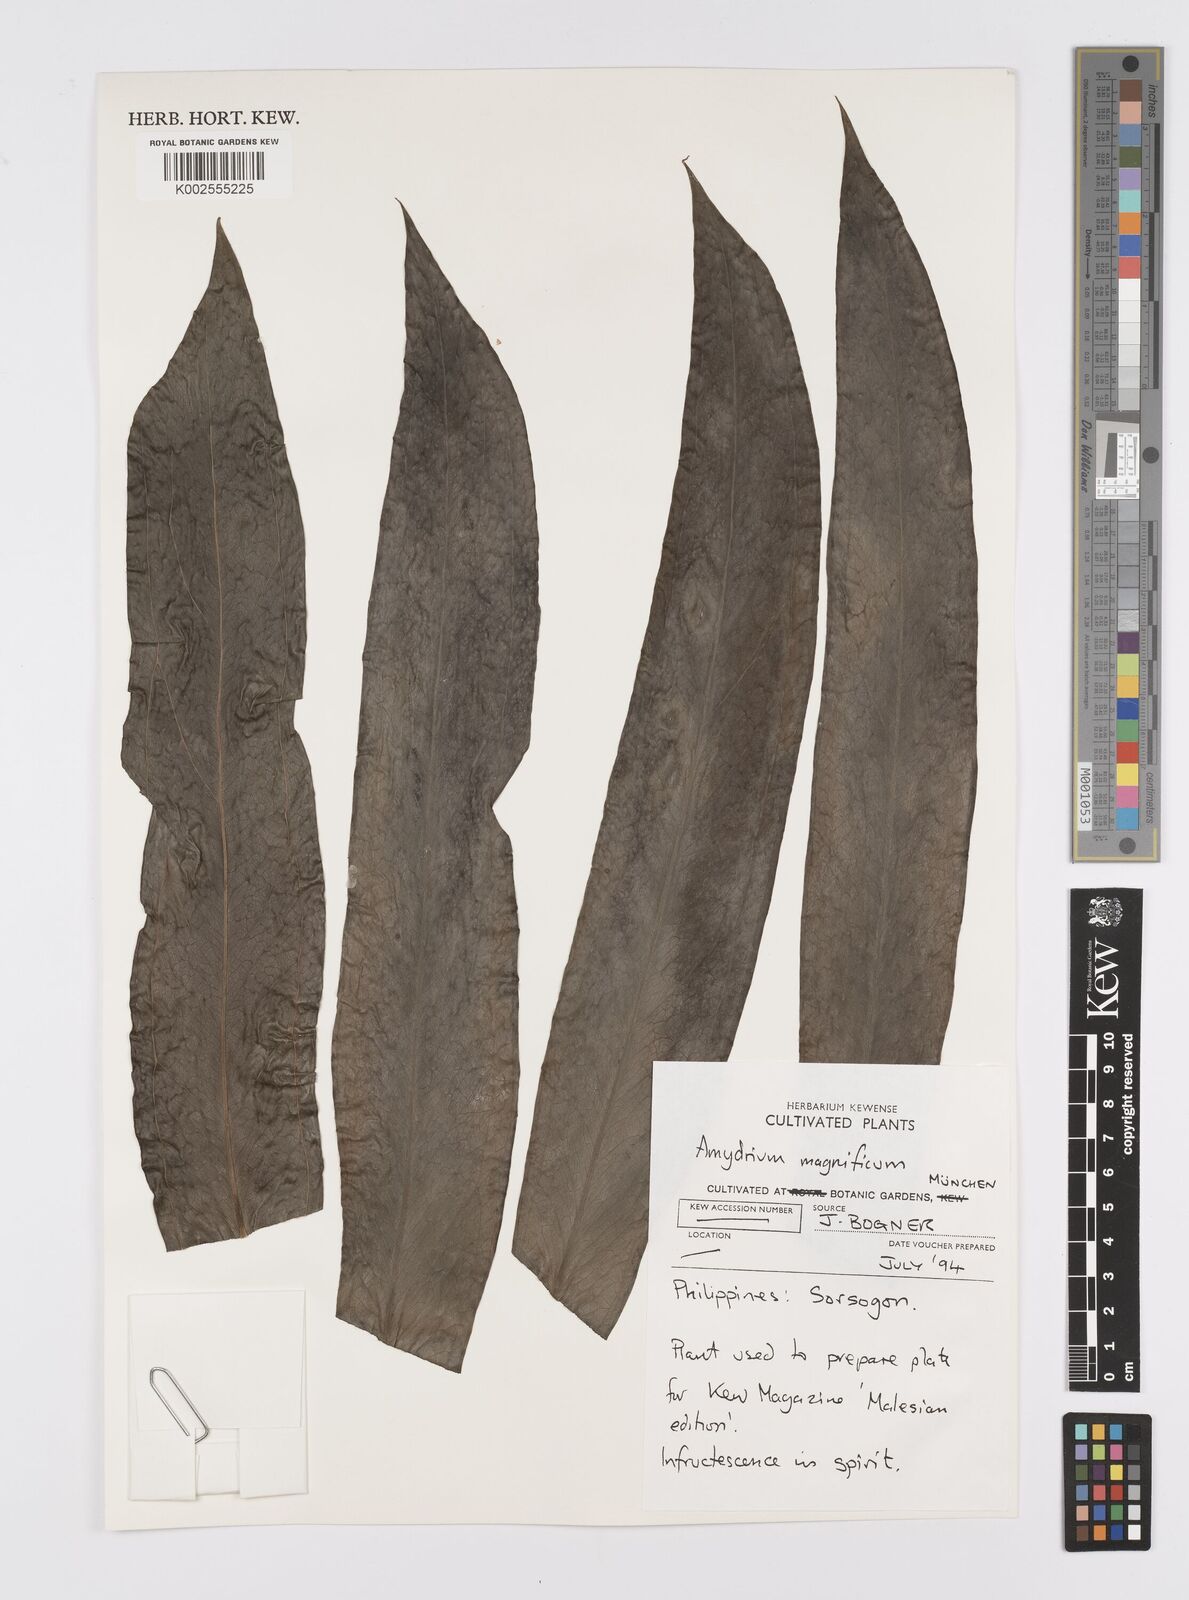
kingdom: Plantae
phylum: Tracheophyta
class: Liliopsida
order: Alismatales
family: Araceae
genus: Amydrium
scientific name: Amydrium zippelianum
